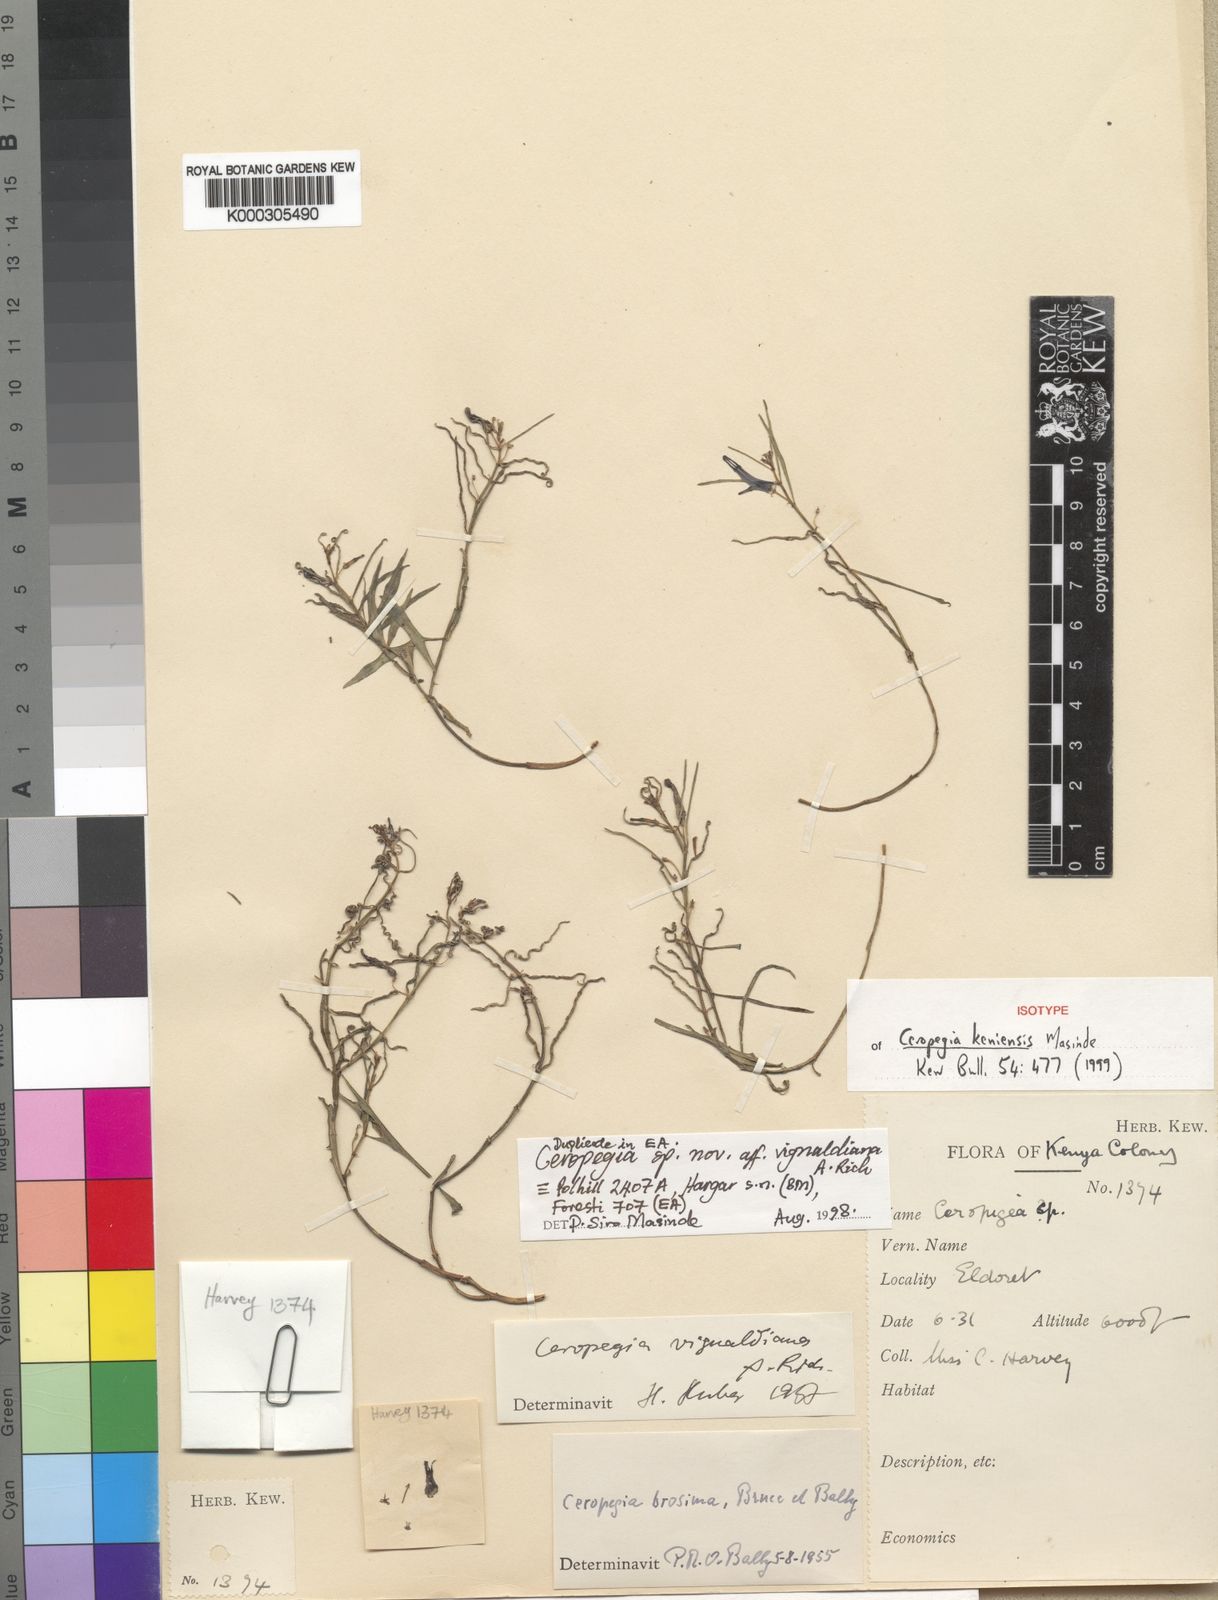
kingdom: Plantae
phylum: Tracheophyta
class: Magnoliopsida
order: Gentianales
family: Apocynaceae
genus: Ceropegia
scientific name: Ceropegia keniensis
